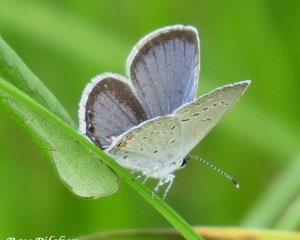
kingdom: Animalia
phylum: Arthropoda
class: Insecta
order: Lepidoptera
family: Lycaenidae
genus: Elkalyce
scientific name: Elkalyce comyntas
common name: Eastern Tailed-Blue
